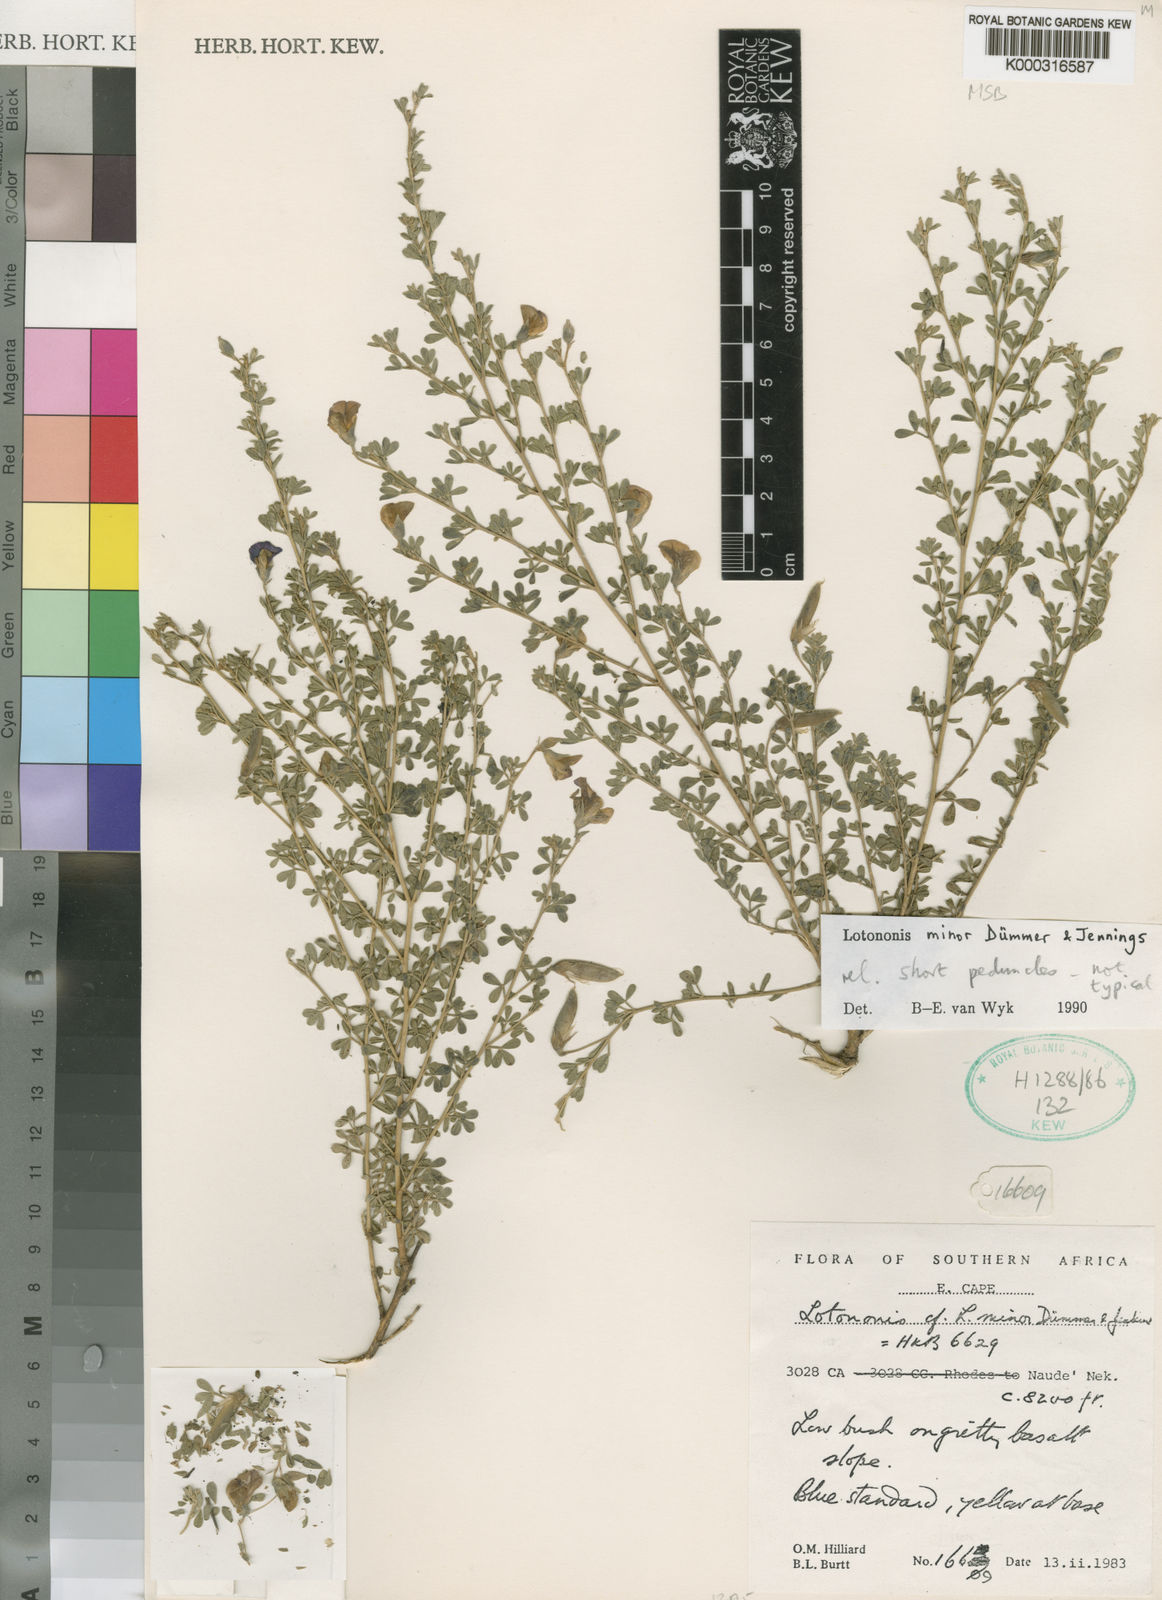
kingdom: Plantae
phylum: Tracheophyta
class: Magnoliopsida
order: Fabales
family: Fabaceae
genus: Lotononis
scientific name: Lotononis minor
